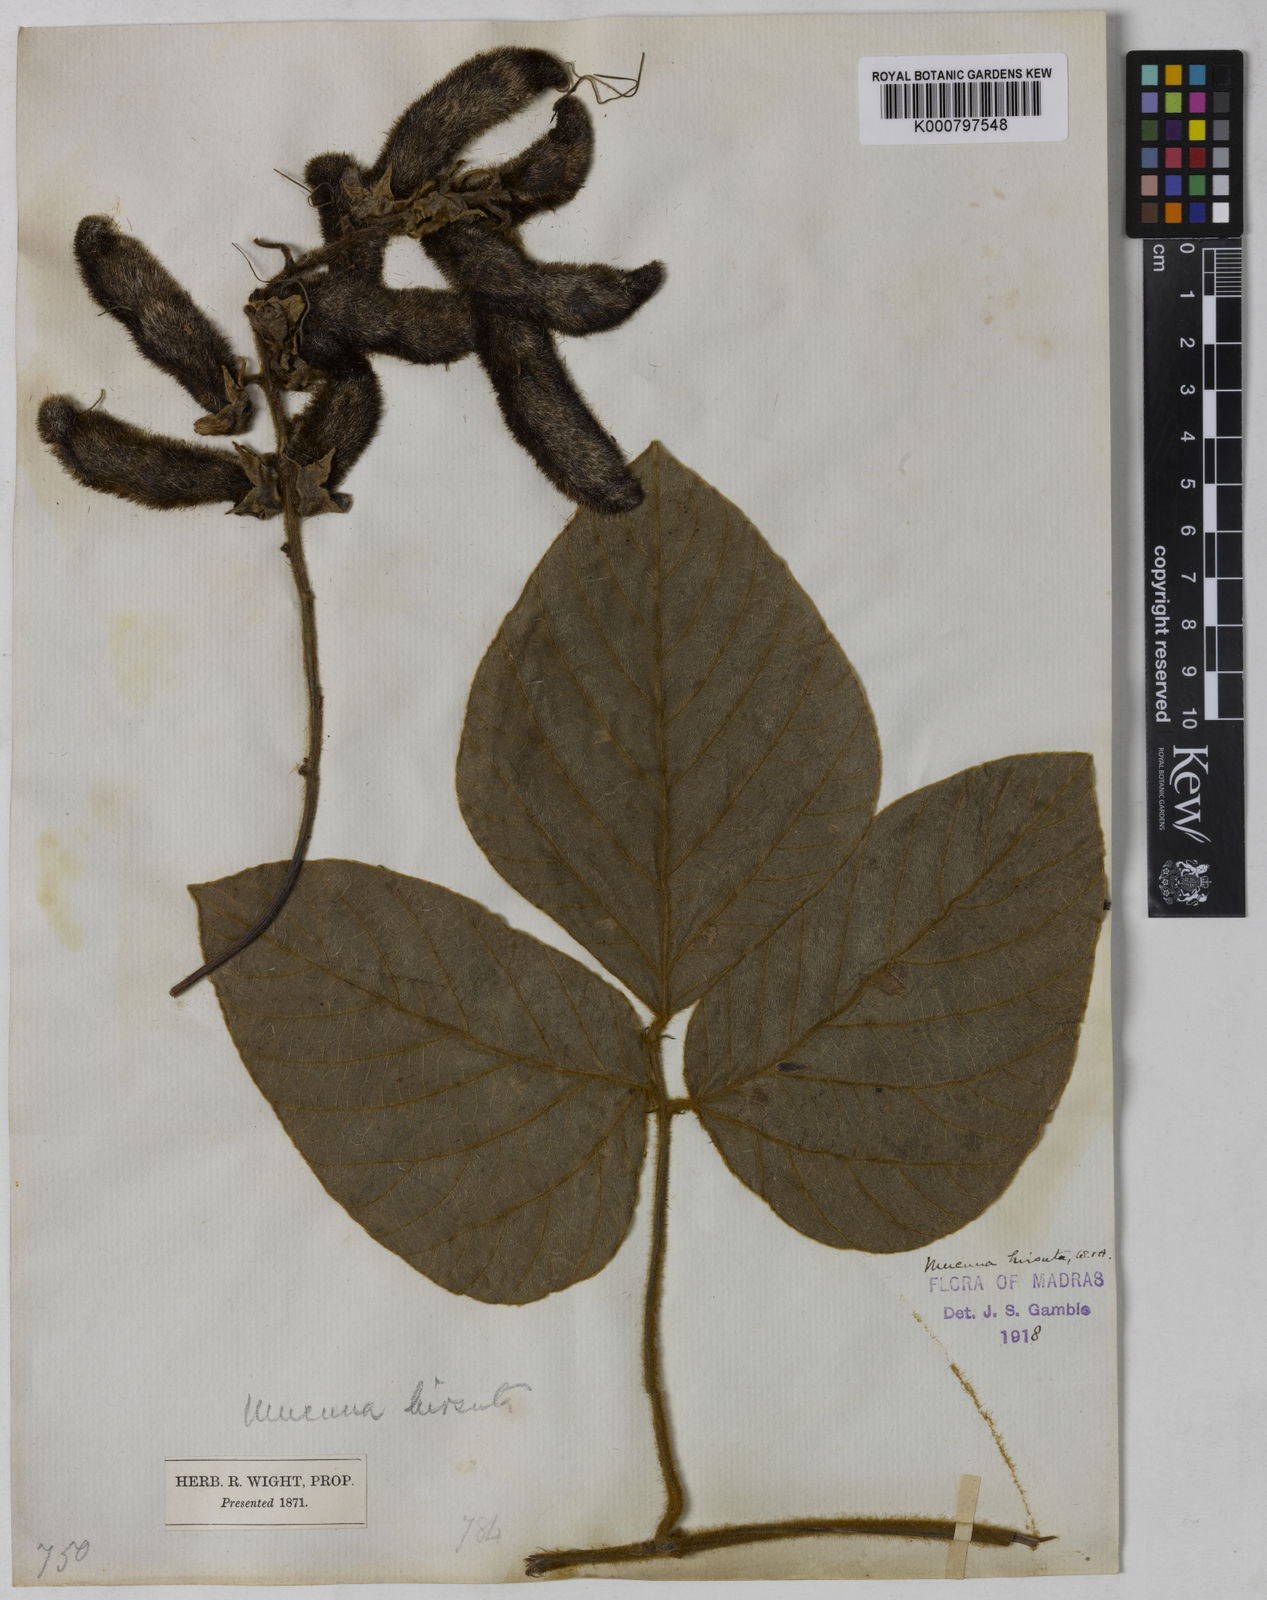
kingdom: Plantae
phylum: Tracheophyta
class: Magnoliopsida
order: Fabales
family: Fabaceae
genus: Mucuna
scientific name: Mucuna pruriens
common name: Cow-itch
